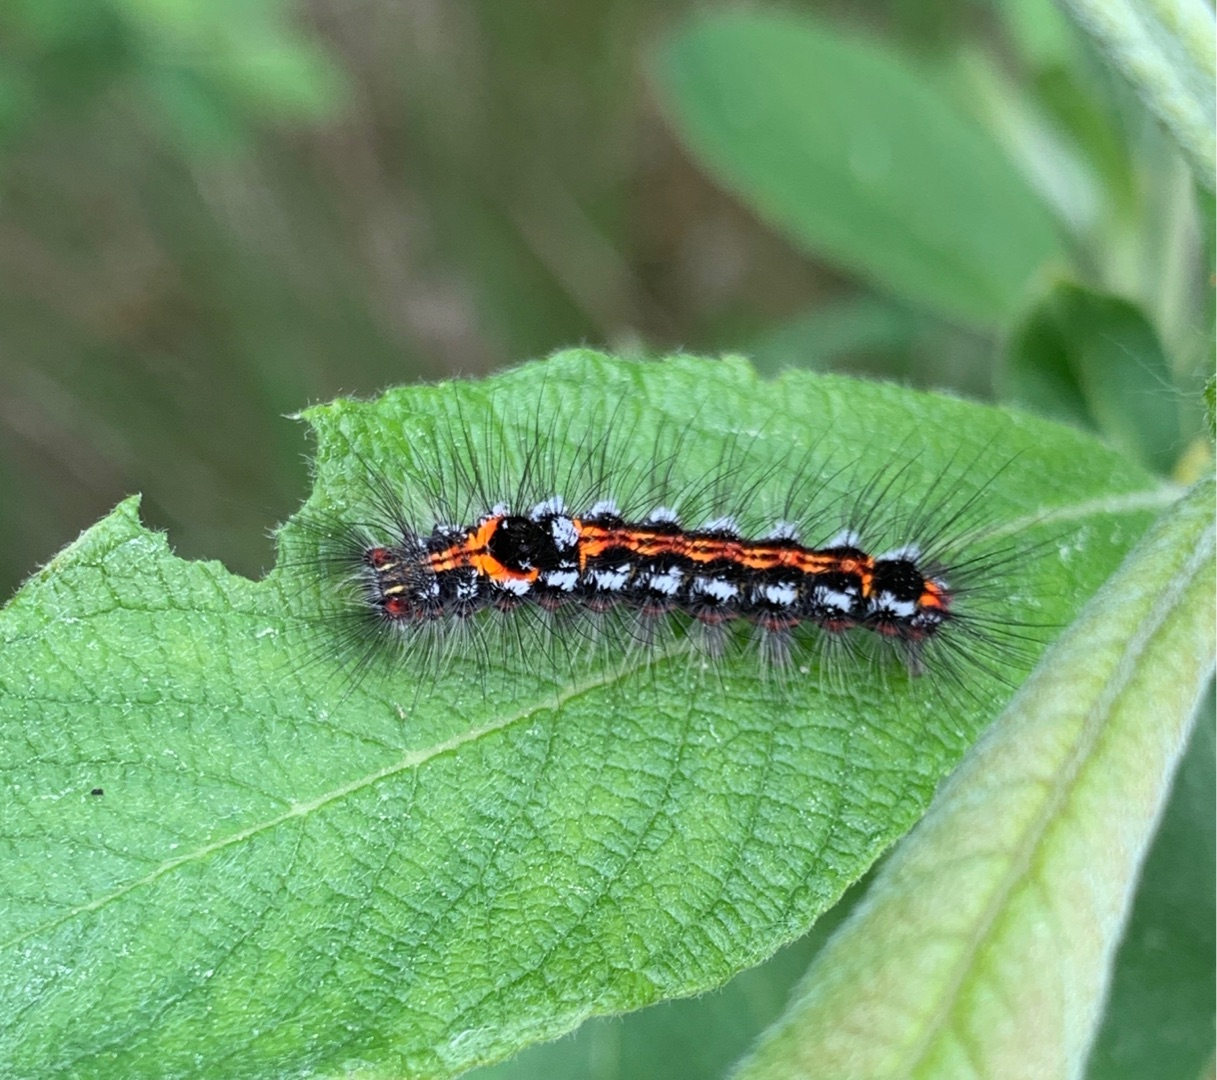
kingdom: Animalia
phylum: Arthropoda
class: Insecta
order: Lepidoptera
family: Erebidae
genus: Sphrageidus
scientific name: Sphrageidus similis
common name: Gulhale
